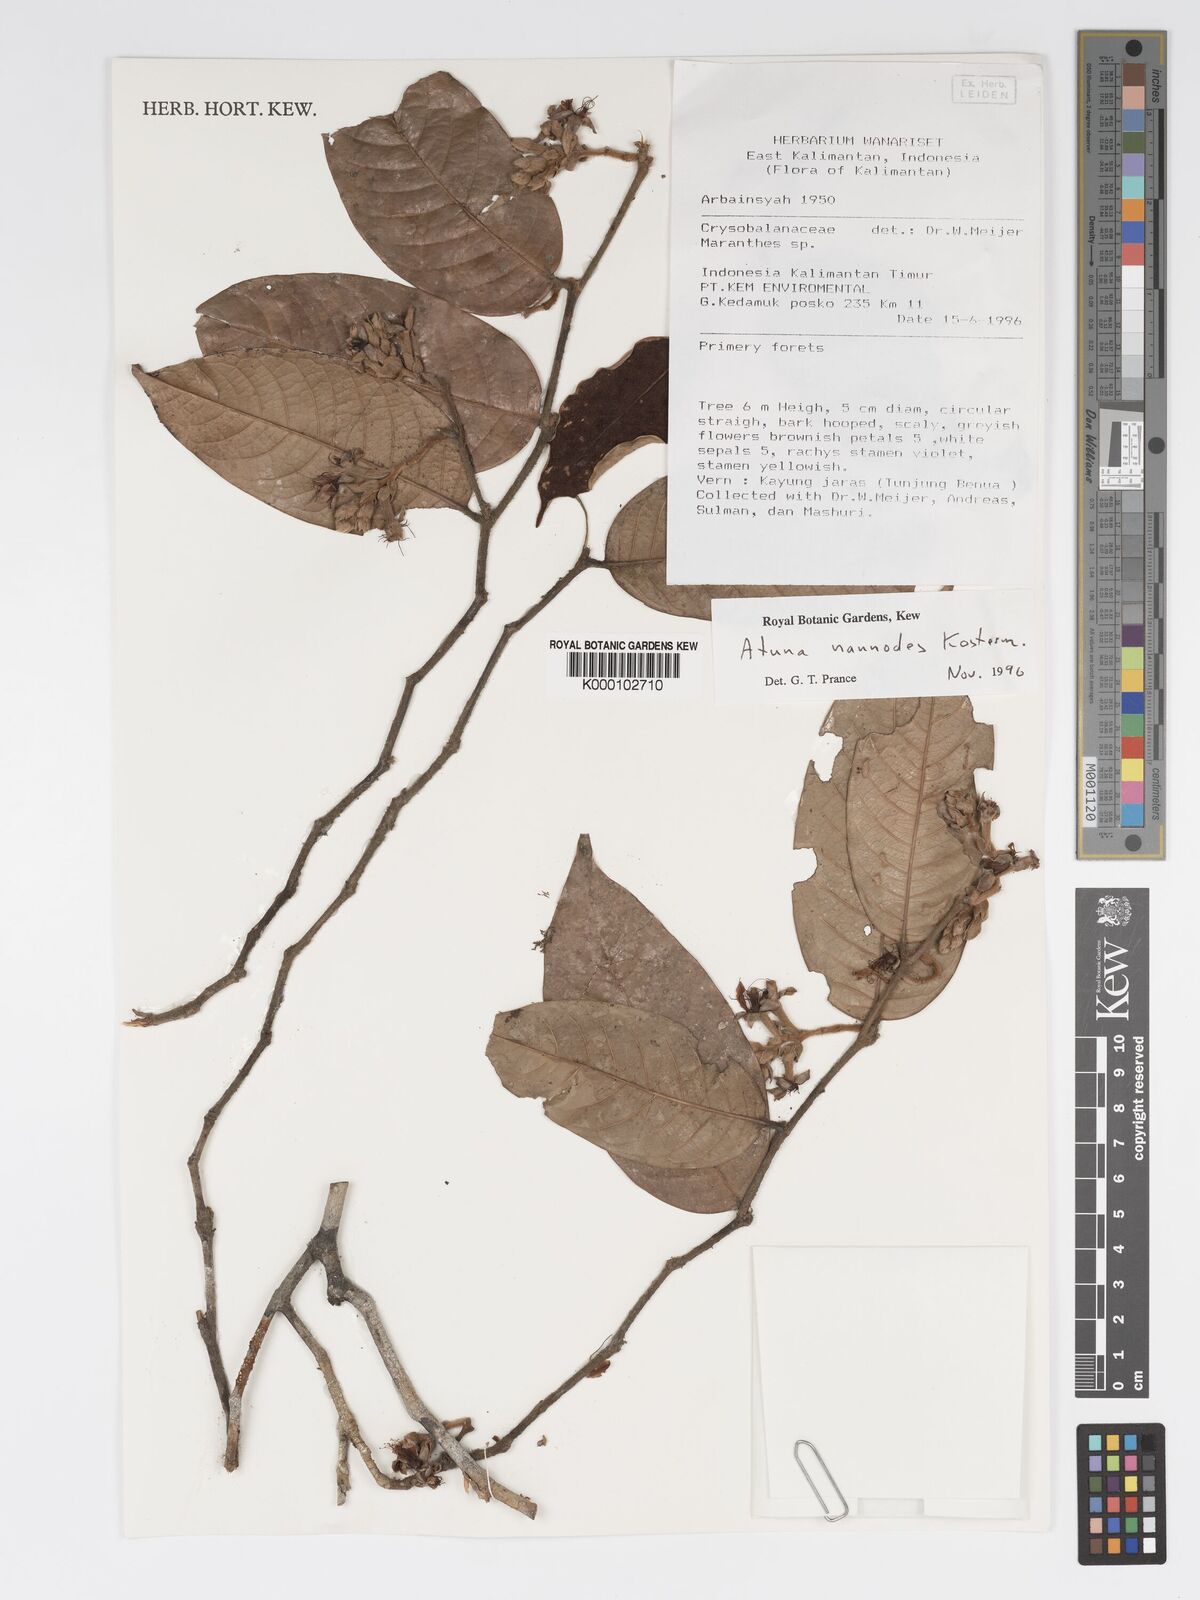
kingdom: Plantae
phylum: Tracheophyta
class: Magnoliopsida
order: Malpighiales
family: Chrysobalanaceae
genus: Atuna
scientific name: Atuna nannodes
